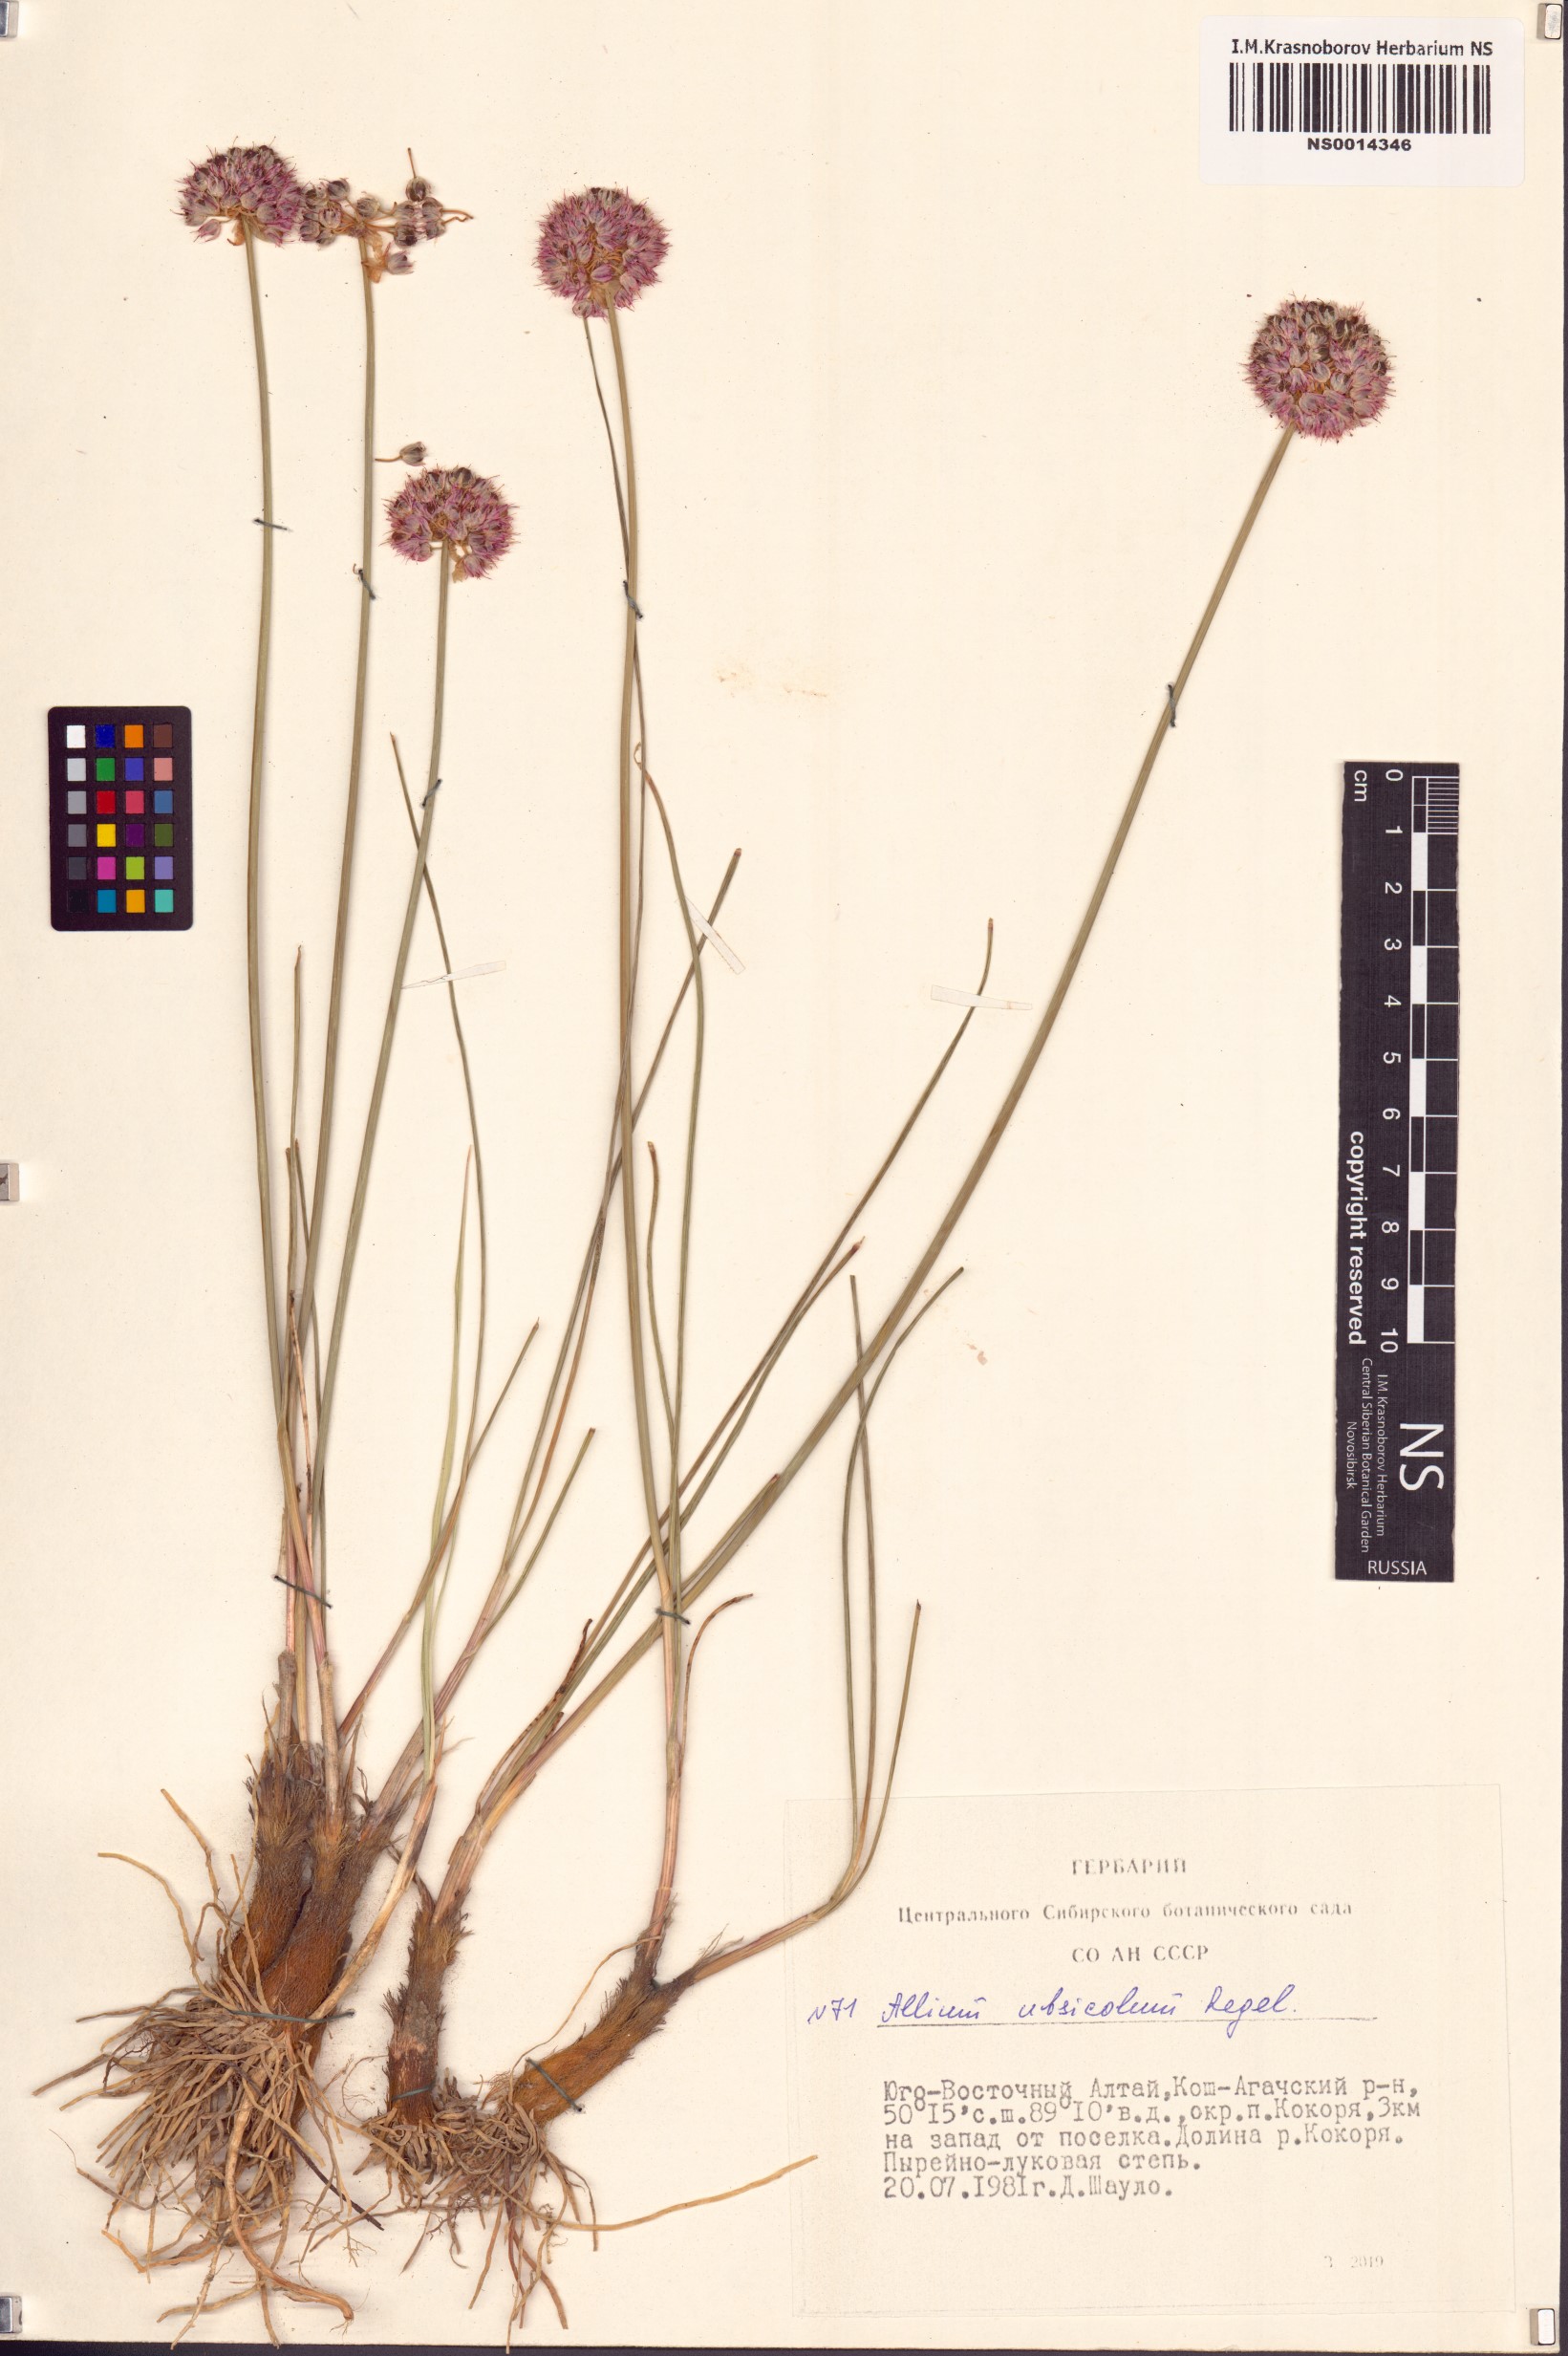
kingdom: Plantae
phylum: Tracheophyta
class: Liliopsida
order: Asparagales
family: Amaryllidaceae
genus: Allium
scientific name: Allium ubsicola
